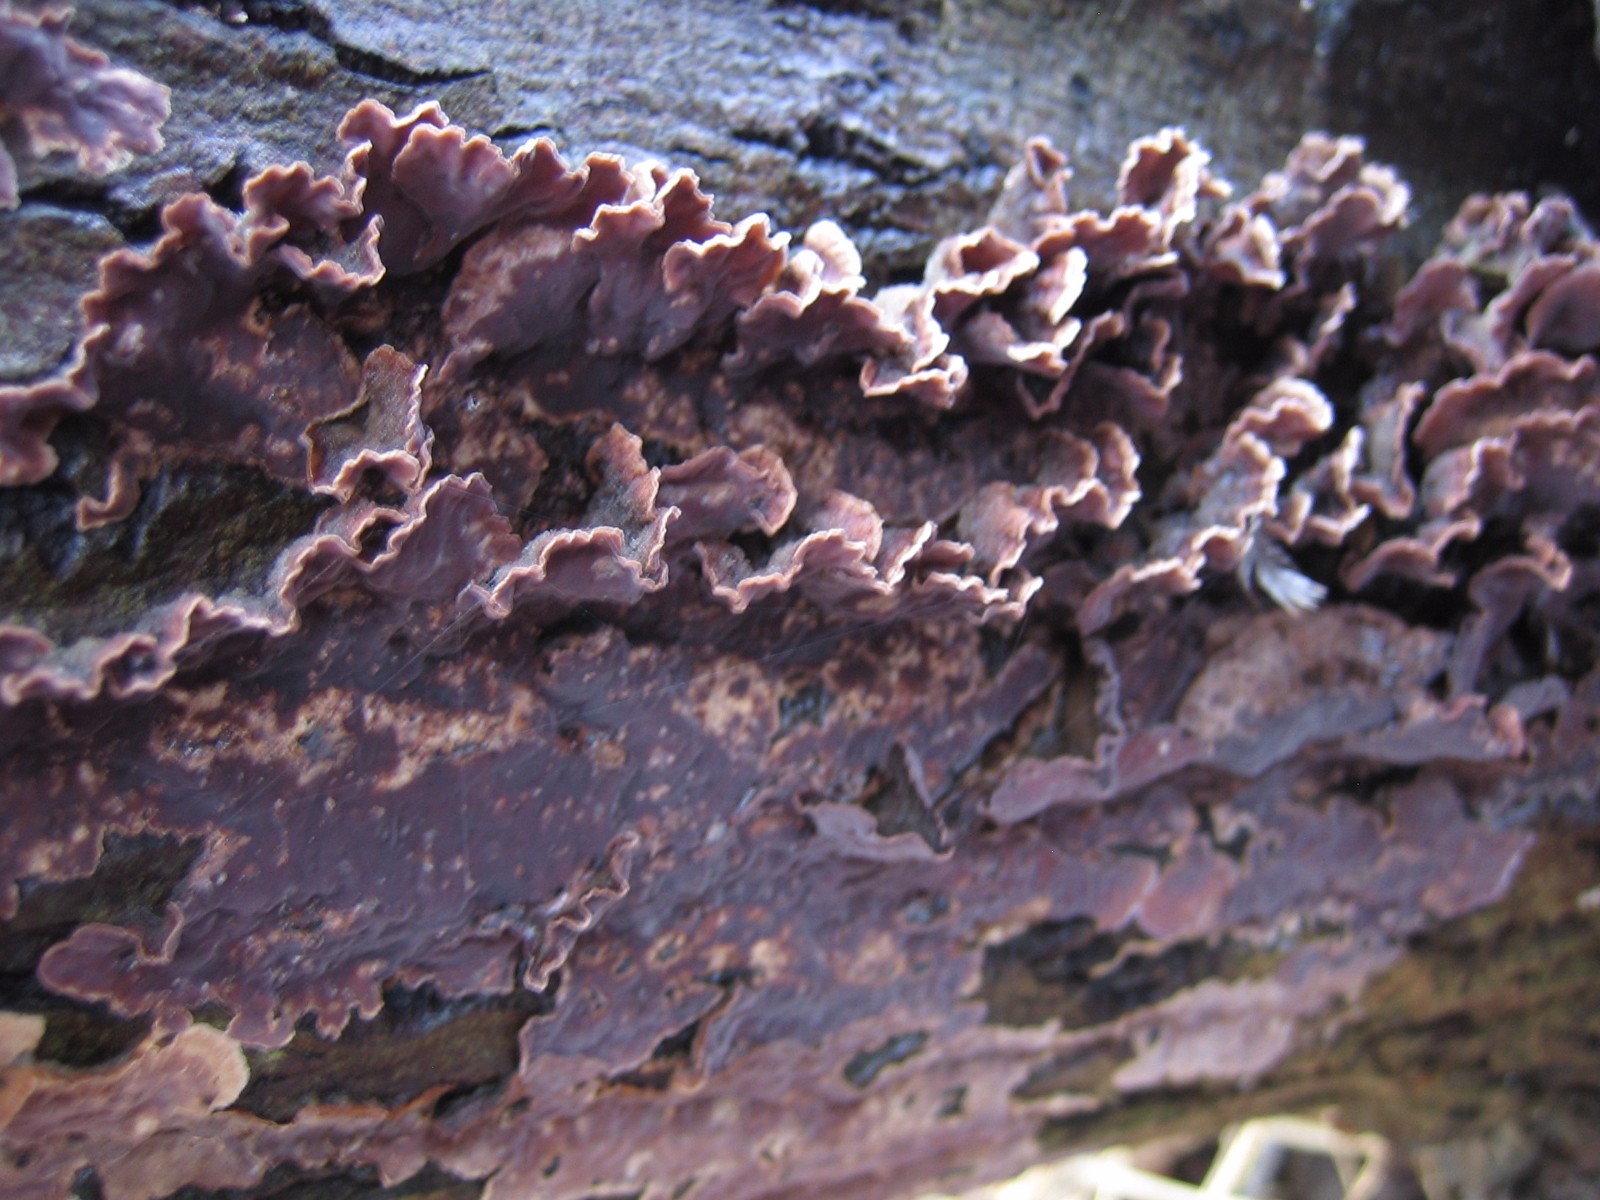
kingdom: Fungi
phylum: Basidiomycota
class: Agaricomycetes
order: Agaricales
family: Cyphellaceae
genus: Chondrostereum
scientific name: Chondrostereum purpureum
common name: purpurlædersvamp
